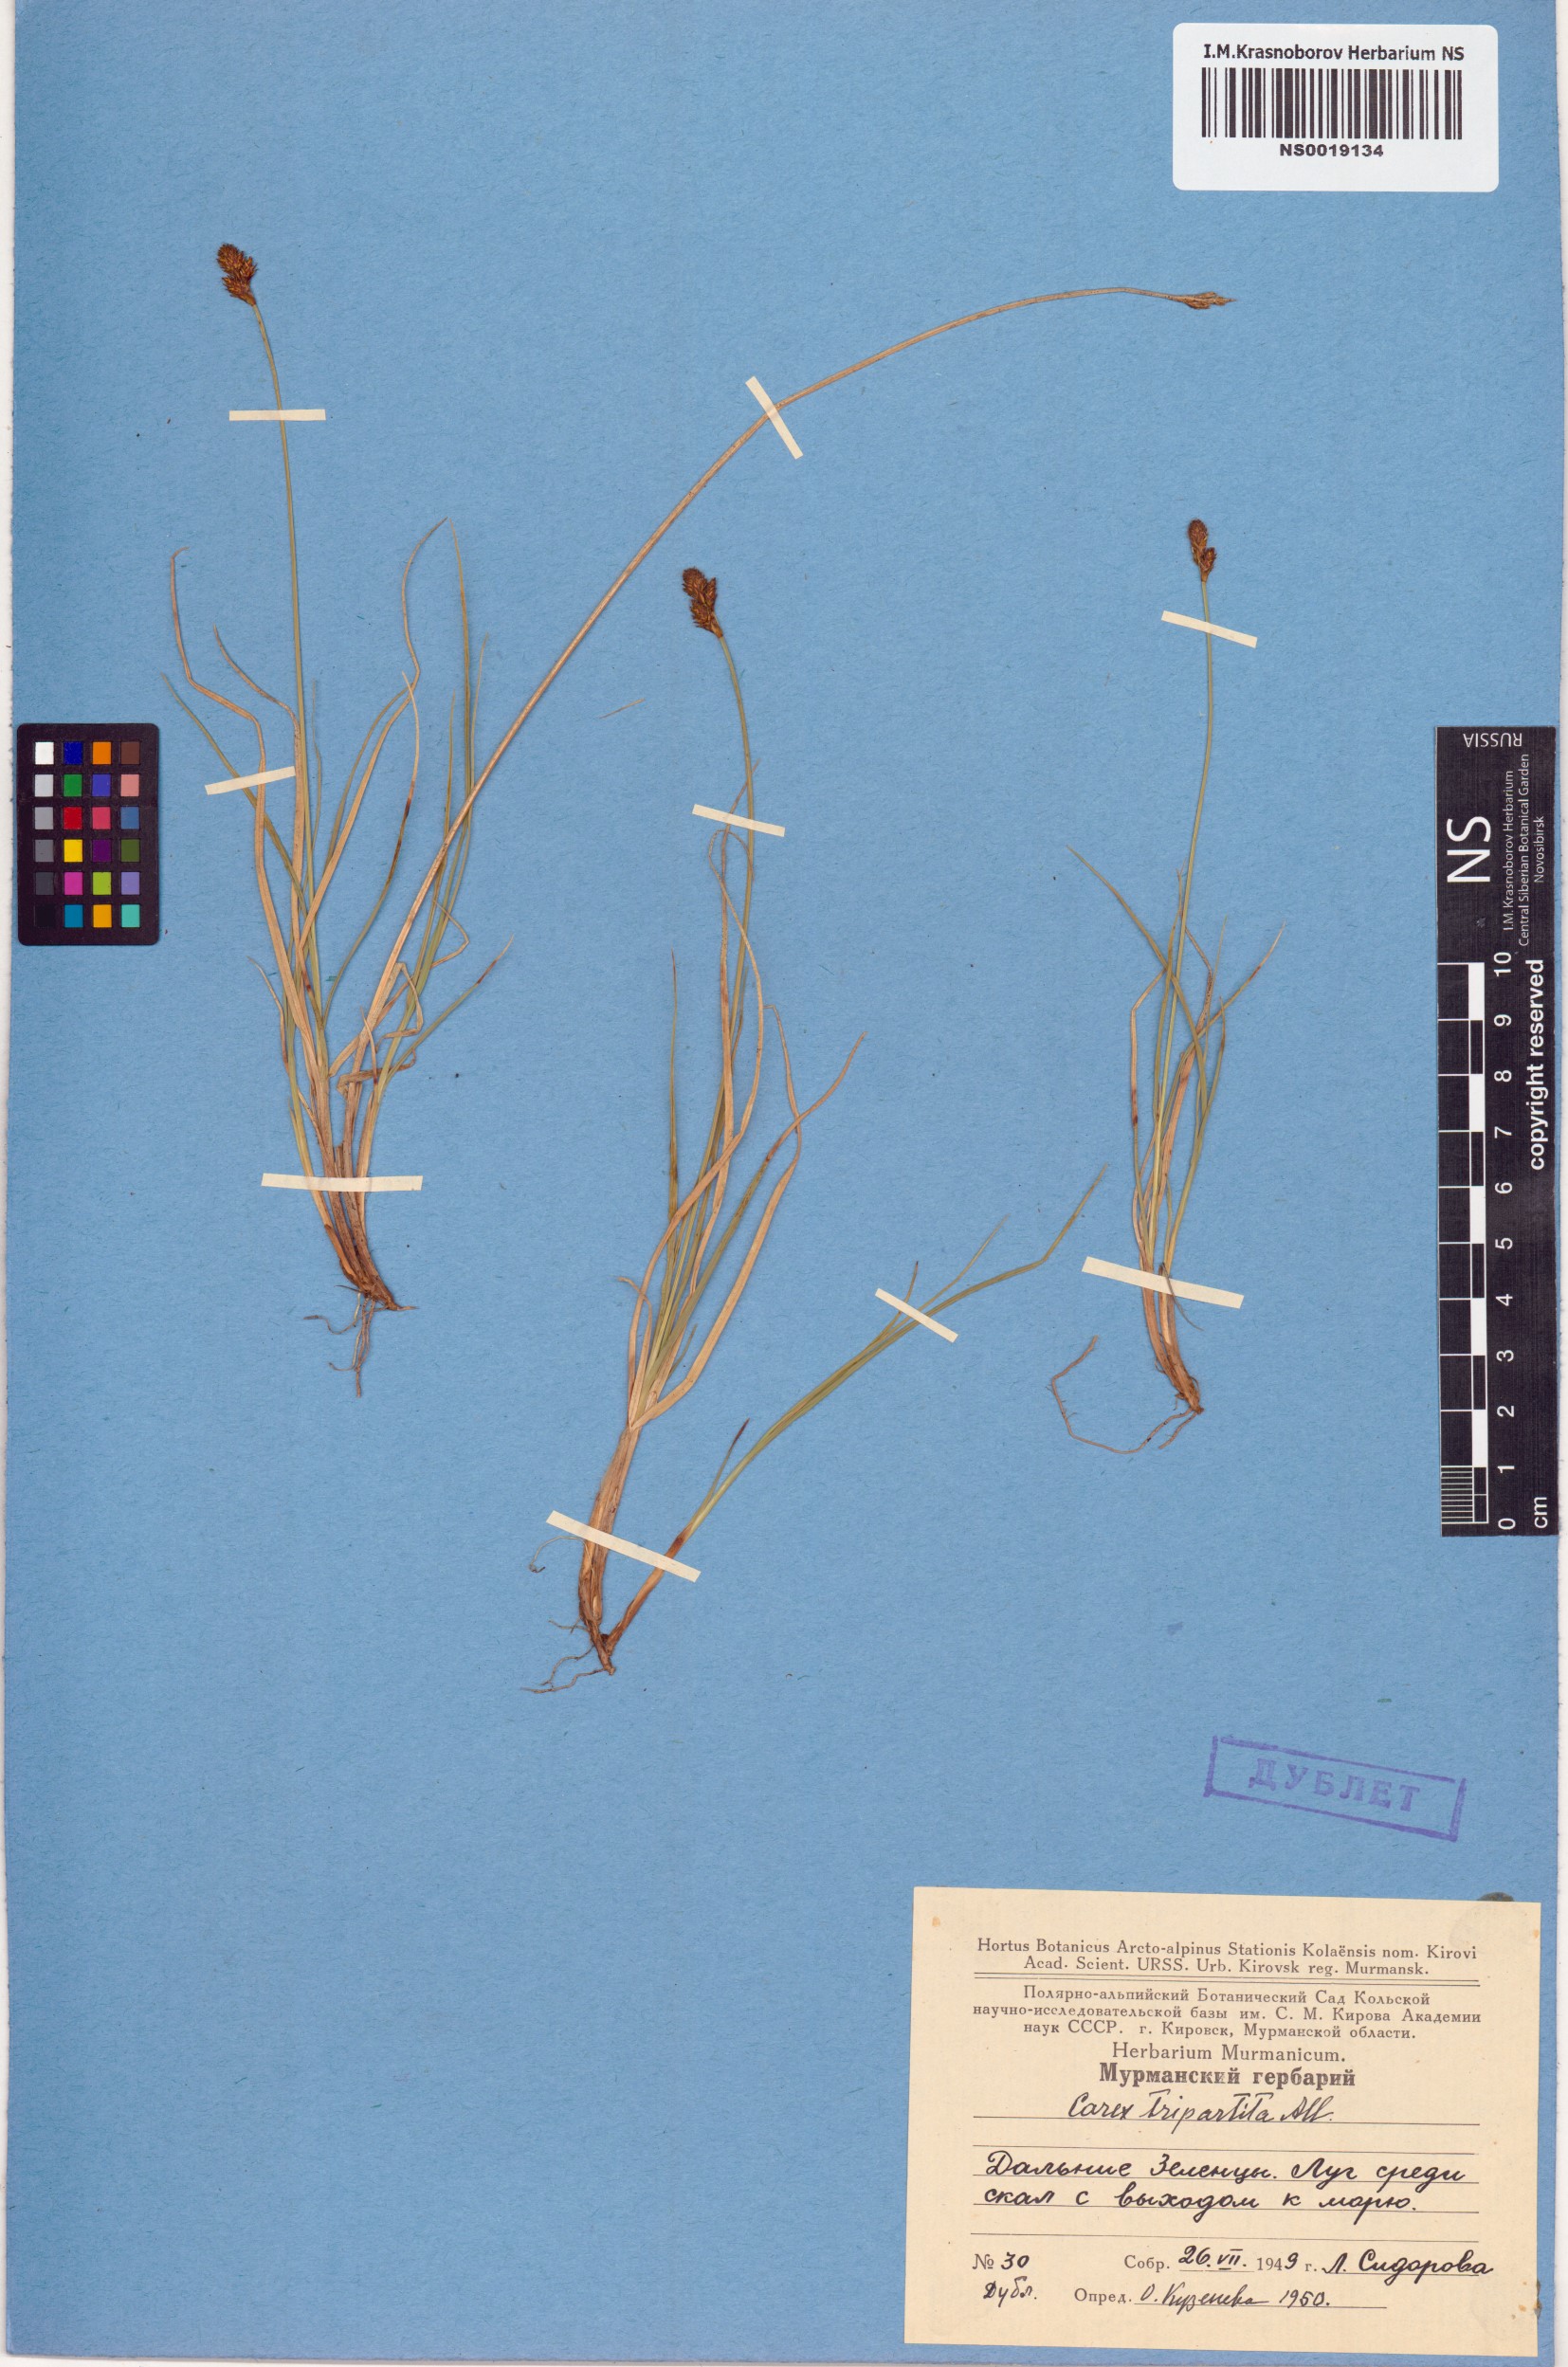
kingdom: Plantae
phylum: Tracheophyta
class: Liliopsida
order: Poales
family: Cyperaceae
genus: Carex
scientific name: Carex lachenalii
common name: Hare's-foot sedge
